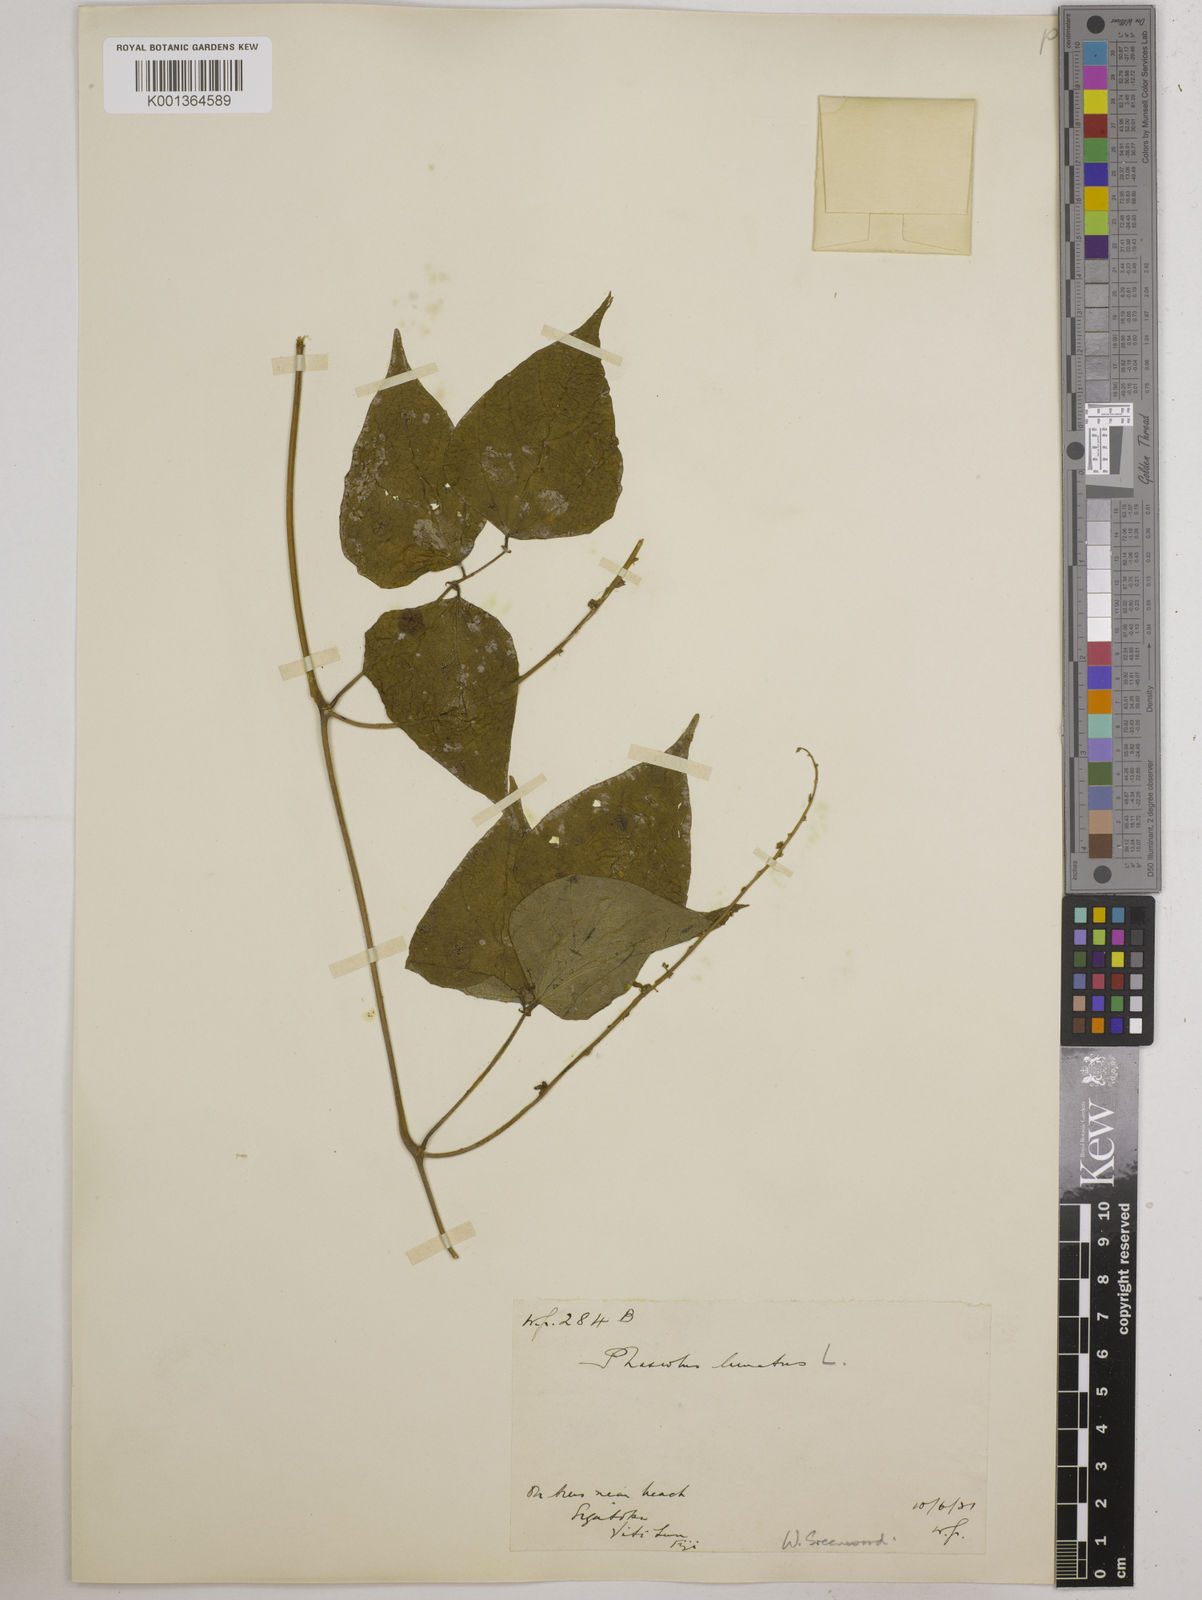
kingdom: Plantae
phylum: Tracheophyta
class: Magnoliopsida
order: Fabales
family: Fabaceae
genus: Phaseolus
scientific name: Phaseolus lunatus
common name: Sieva bean
